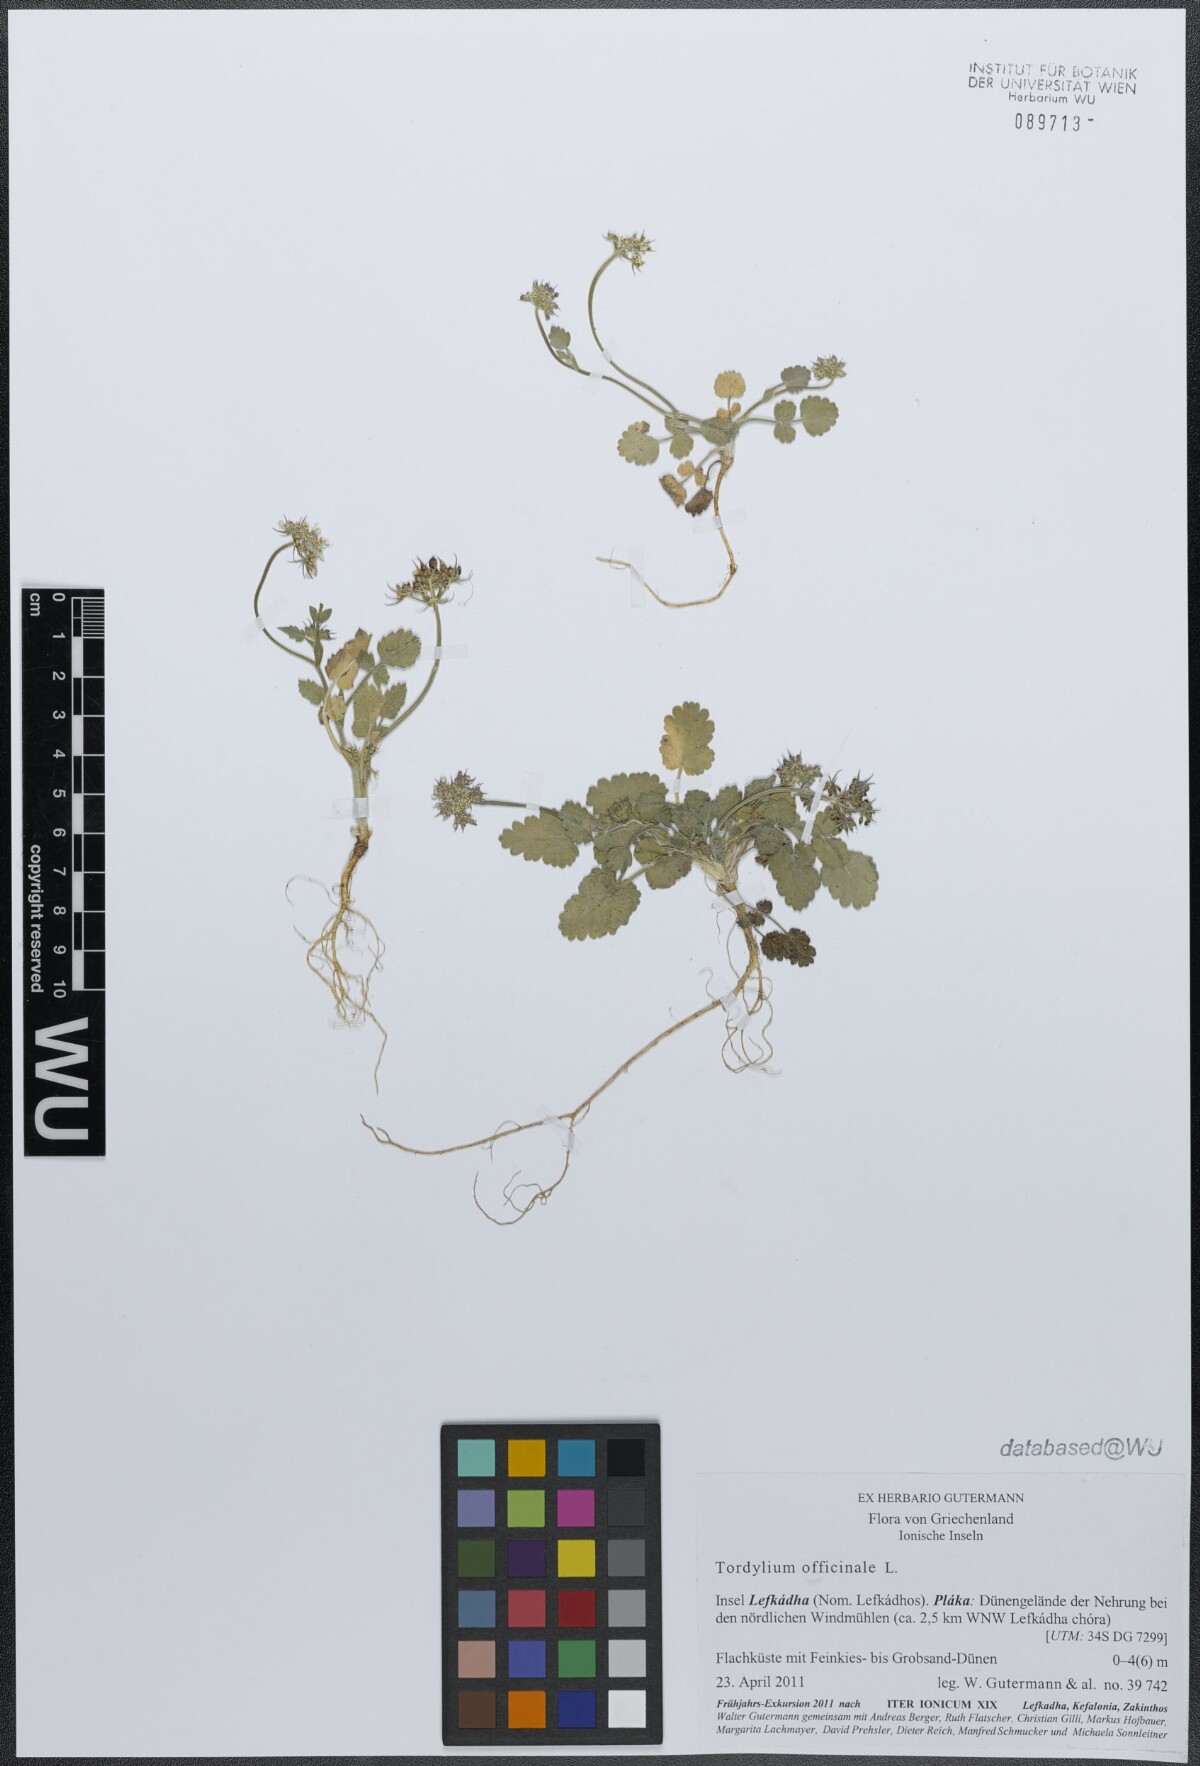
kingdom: Plantae
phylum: Tracheophyta
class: Magnoliopsida
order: Apiales
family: Apiaceae
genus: Tordylium
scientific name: Tordylium officinale
